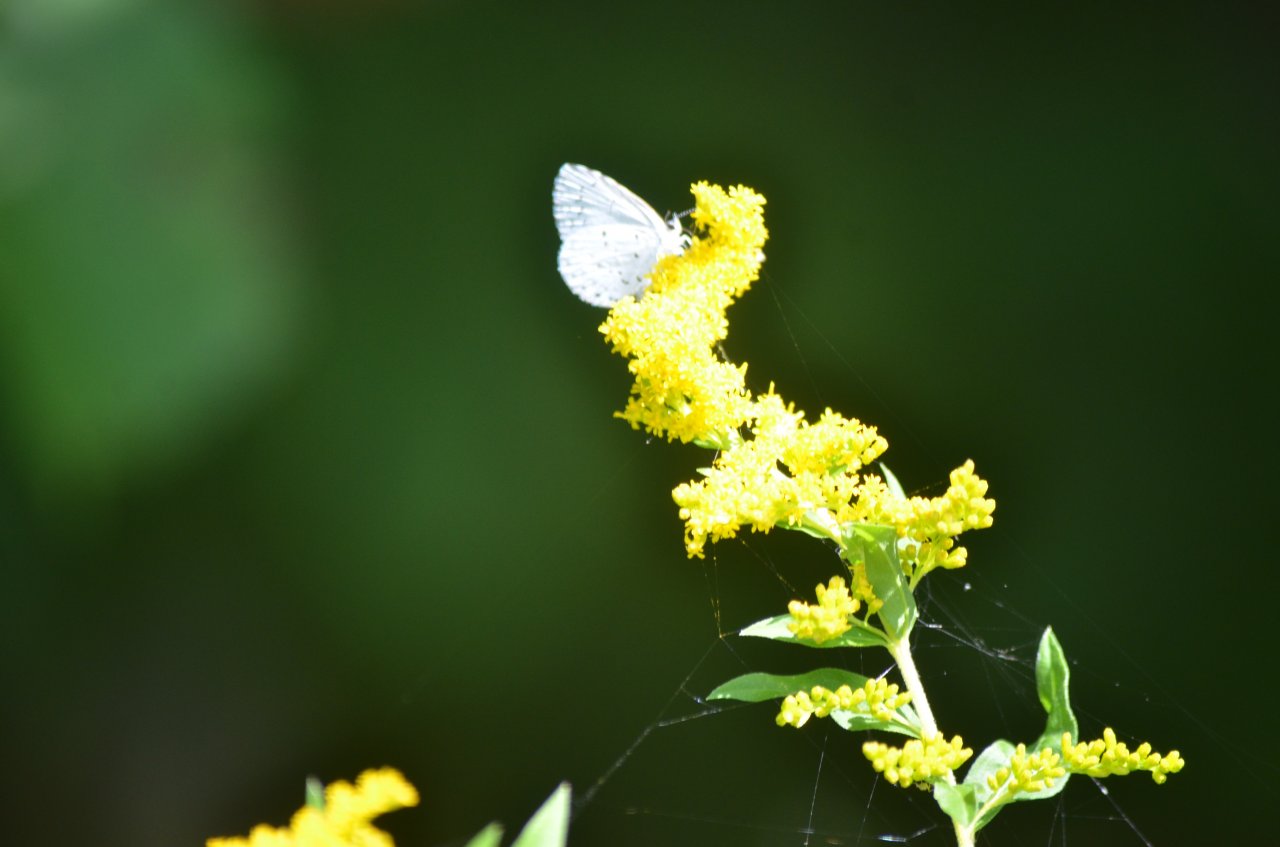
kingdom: Animalia
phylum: Arthropoda
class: Insecta
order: Lepidoptera
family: Lycaenidae
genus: Cyaniris
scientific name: Cyaniris neglecta
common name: Summer Azure
